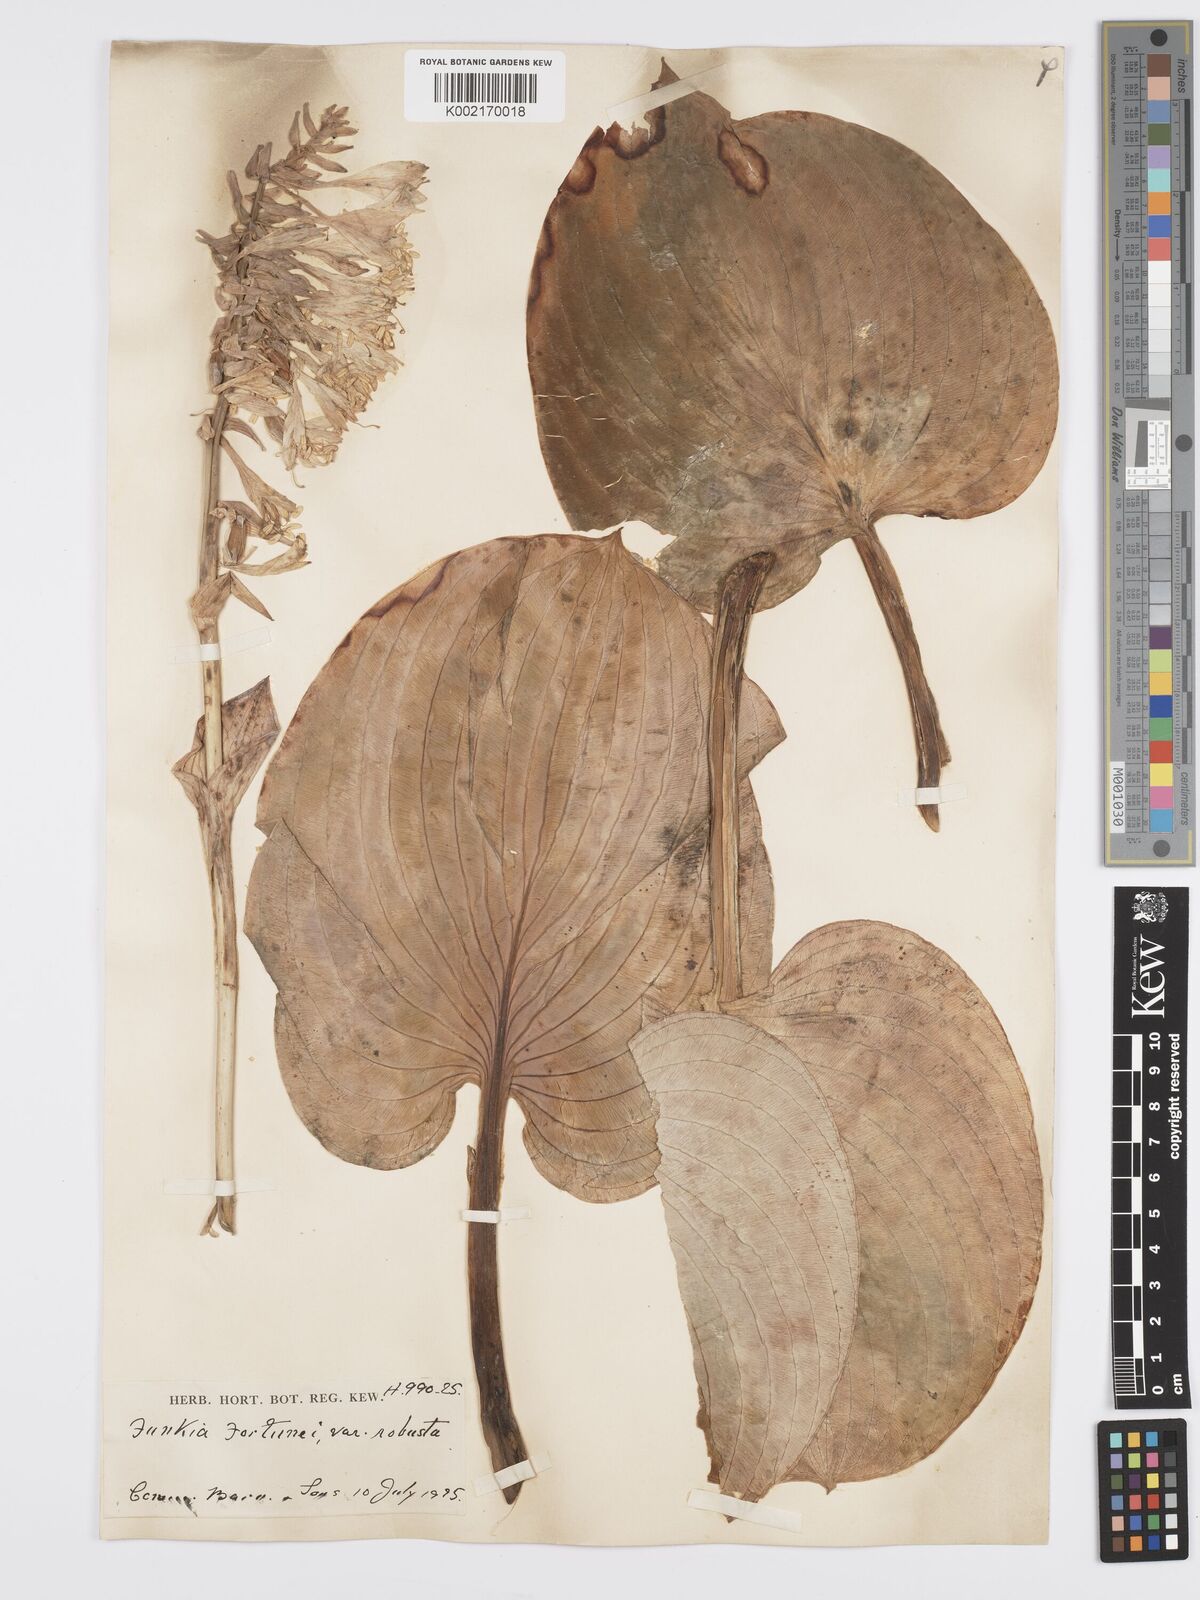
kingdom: Plantae
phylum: Tracheophyta
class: Liliopsida
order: Asparagales
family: Asparagaceae
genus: Hosta
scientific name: Hosta sieboldiana
